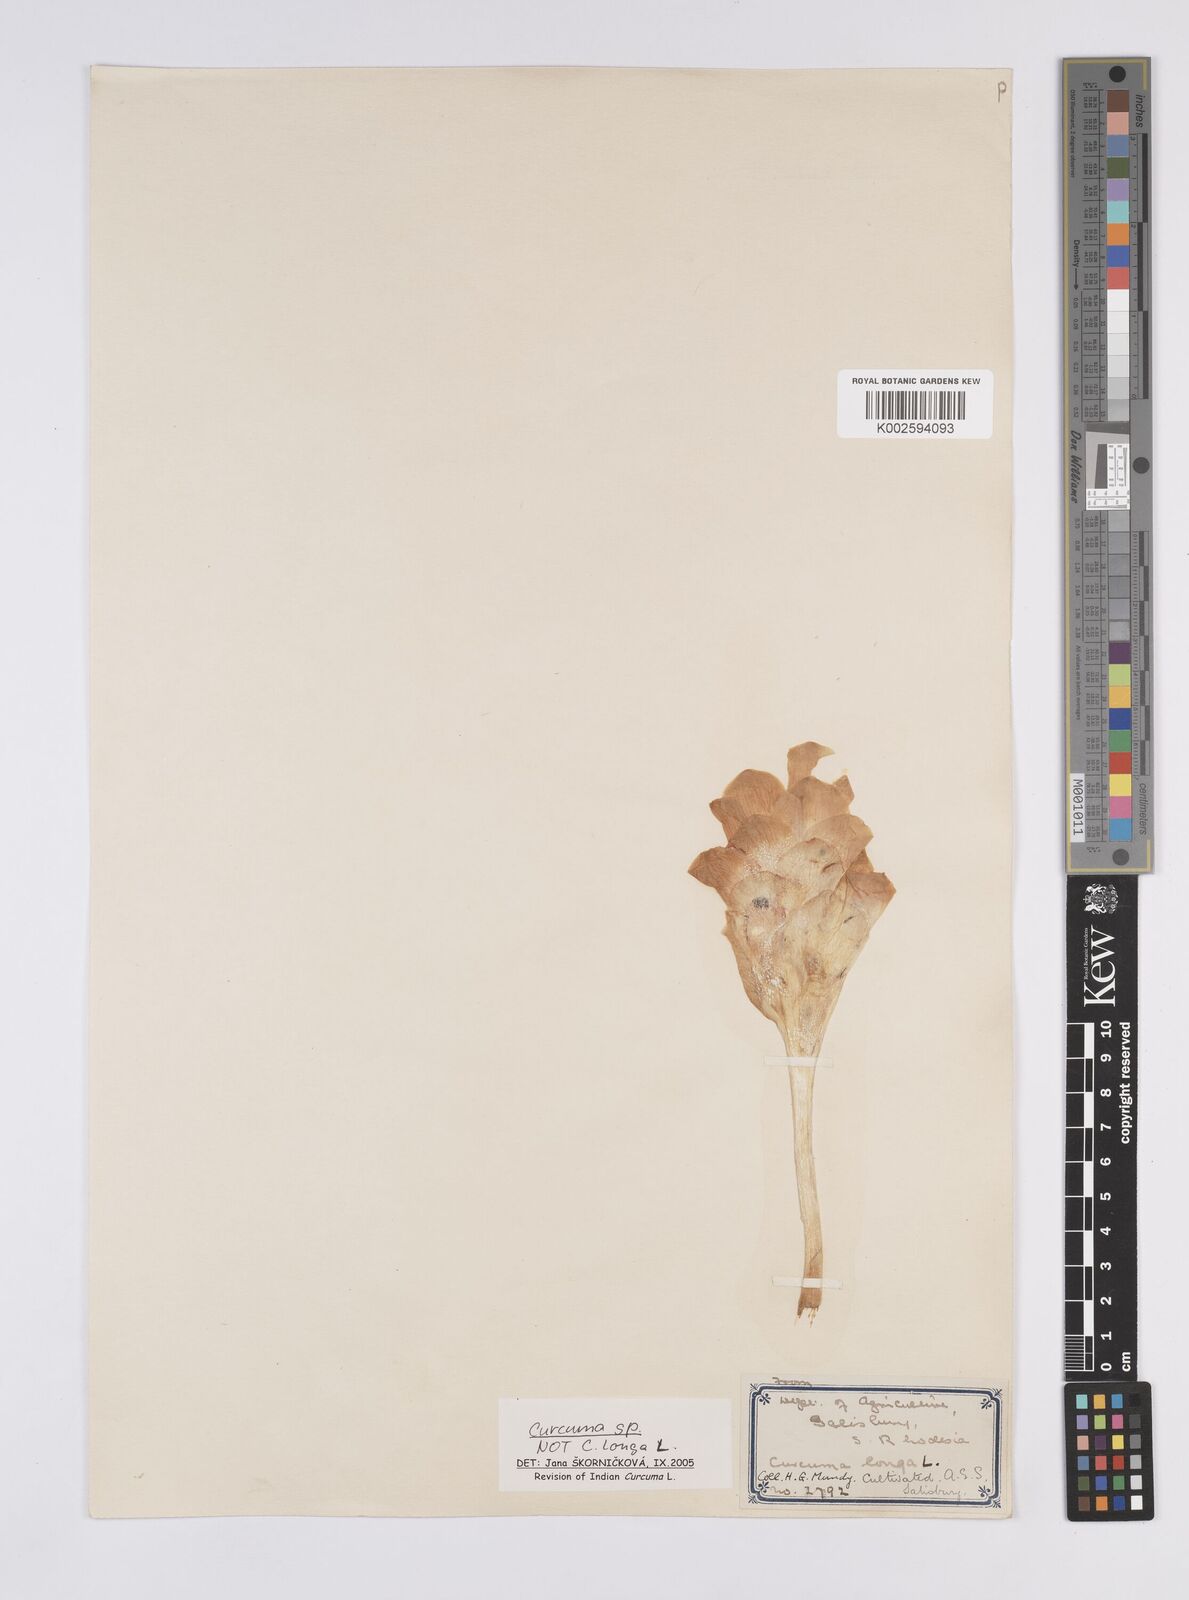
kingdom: Plantae
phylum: Tracheophyta
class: Liliopsida
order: Zingiberales
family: Zingiberaceae
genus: Curcuma
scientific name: Curcuma
